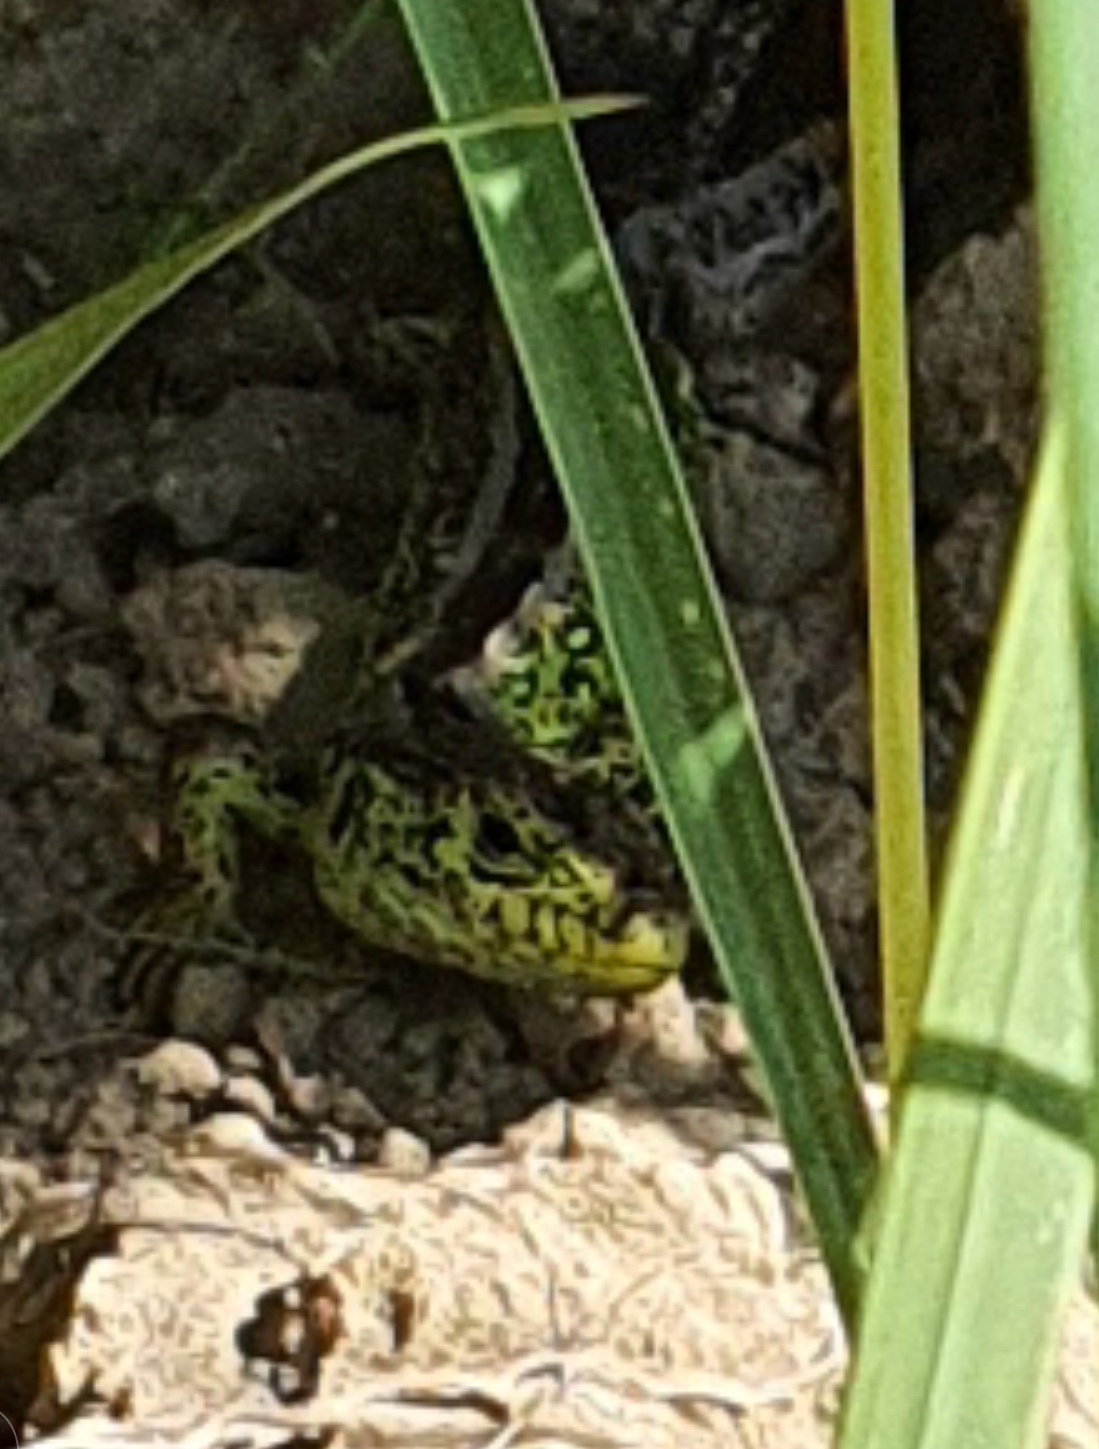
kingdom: Animalia
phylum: Chordata
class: Squamata
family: Lacertidae
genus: Lacerta
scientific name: Lacerta agilis
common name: Markfirben
